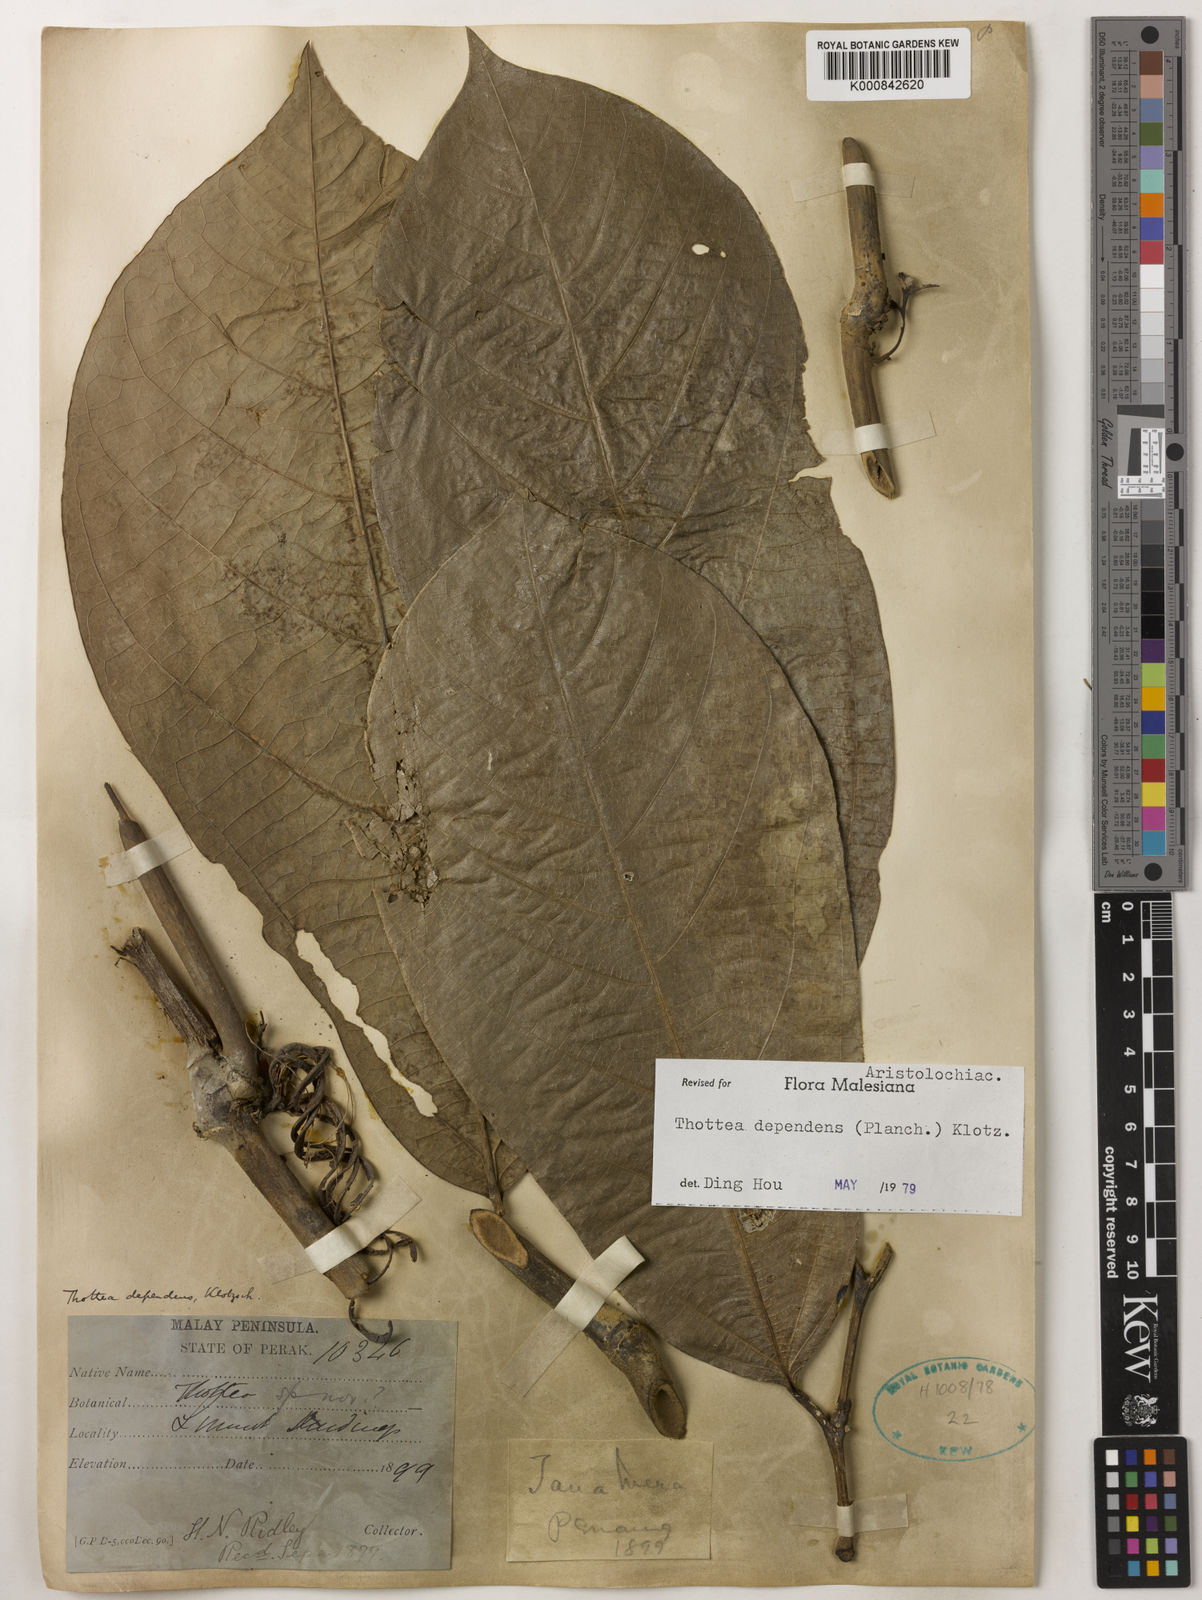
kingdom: Plantae
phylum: Tracheophyta
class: Magnoliopsida
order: Piperales
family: Aristolochiaceae
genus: Thottea
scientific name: Thottea dependens
